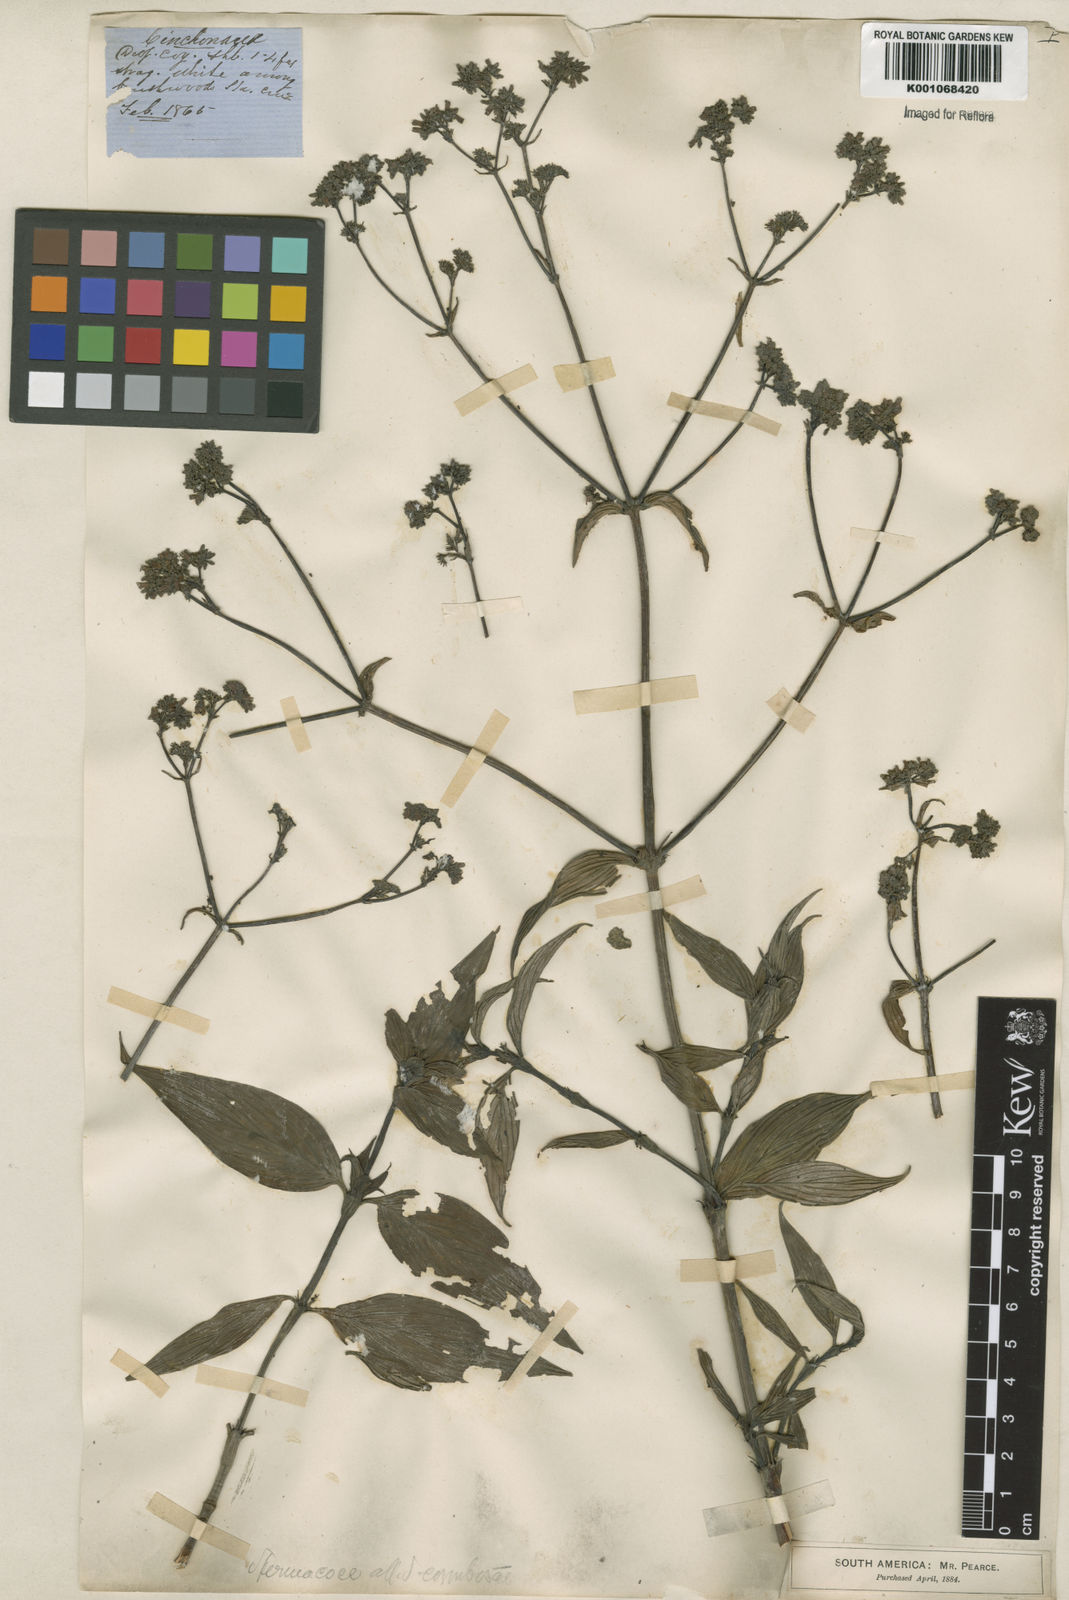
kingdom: Plantae
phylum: Tracheophyta
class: Magnoliopsida
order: Gentianales
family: Rubiaceae
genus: Galianthe
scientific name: Galianthe peruviana
